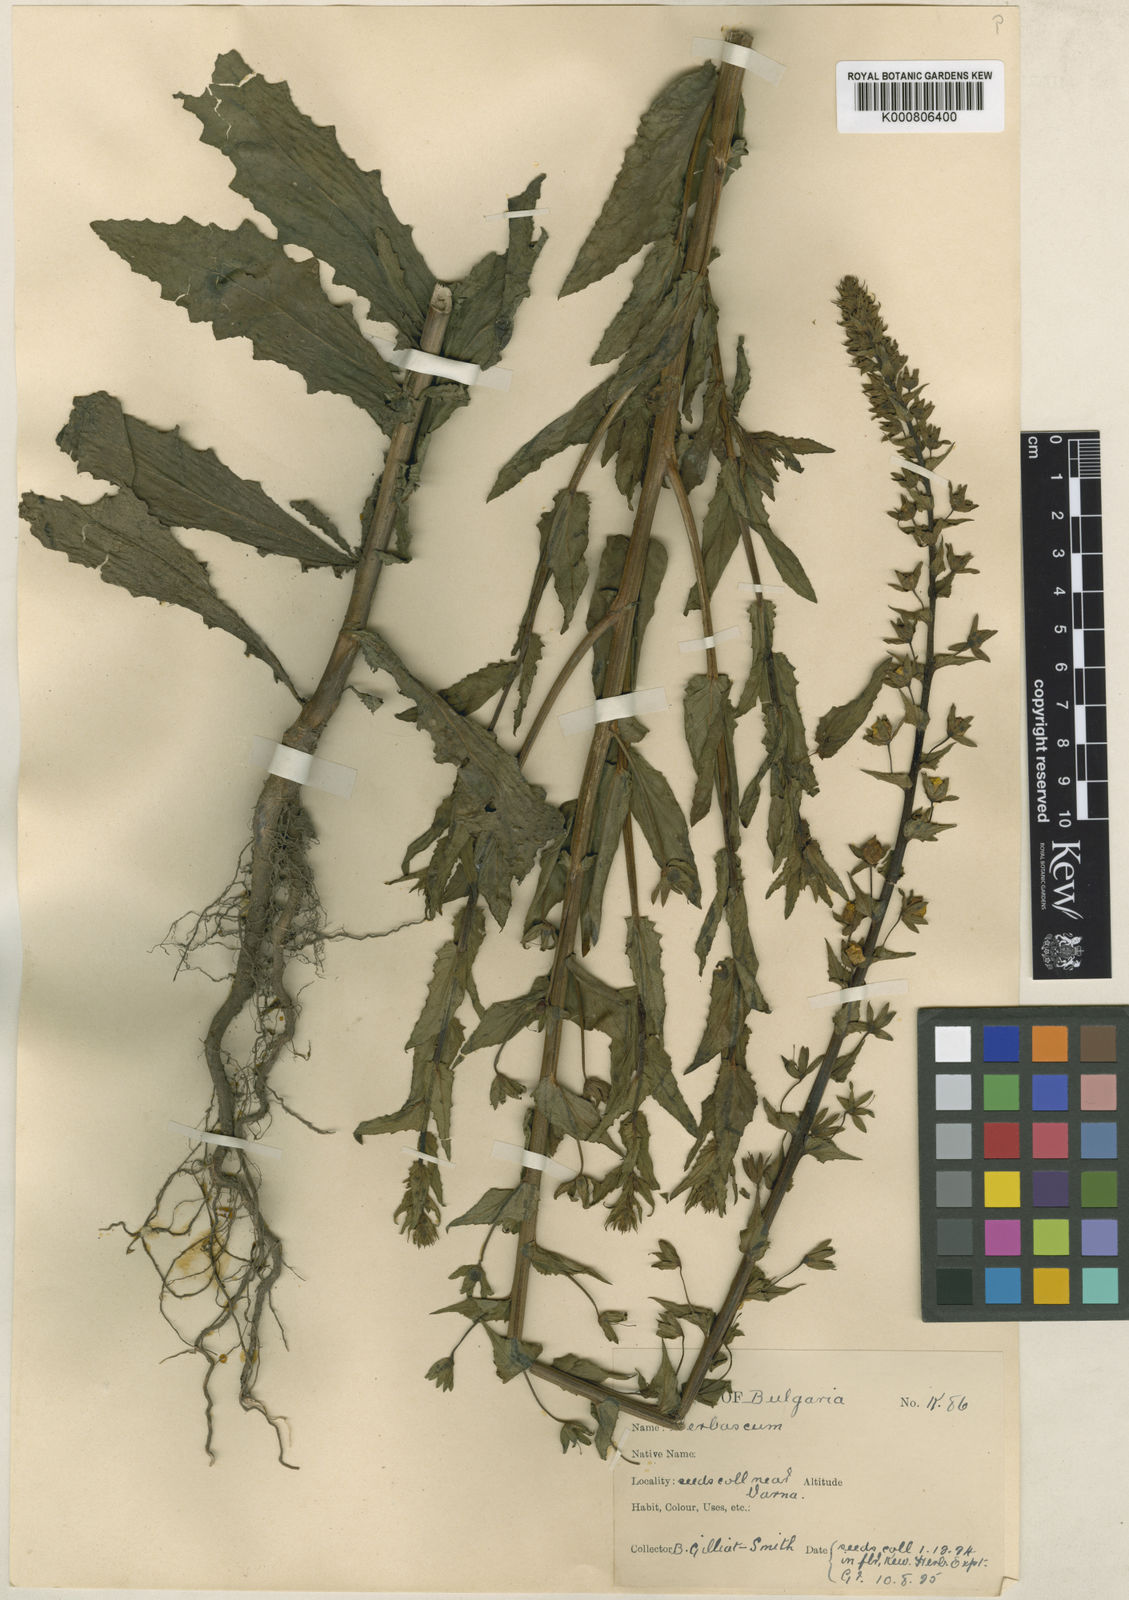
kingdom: Plantae
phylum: Tracheophyta
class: Magnoliopsida
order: Lamiales
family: Scrophulariaceae
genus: Verbascum
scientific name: Verbascum blattaria
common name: Moth mullein
